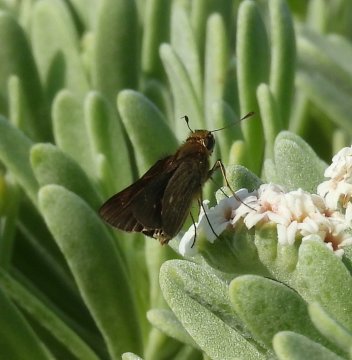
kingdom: Animalia
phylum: Arthropoda
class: Insecta
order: Lepidoptera
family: Hesperiidae
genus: Panoquina
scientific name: Panoquina panoquinoides
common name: Obscure Skipper
